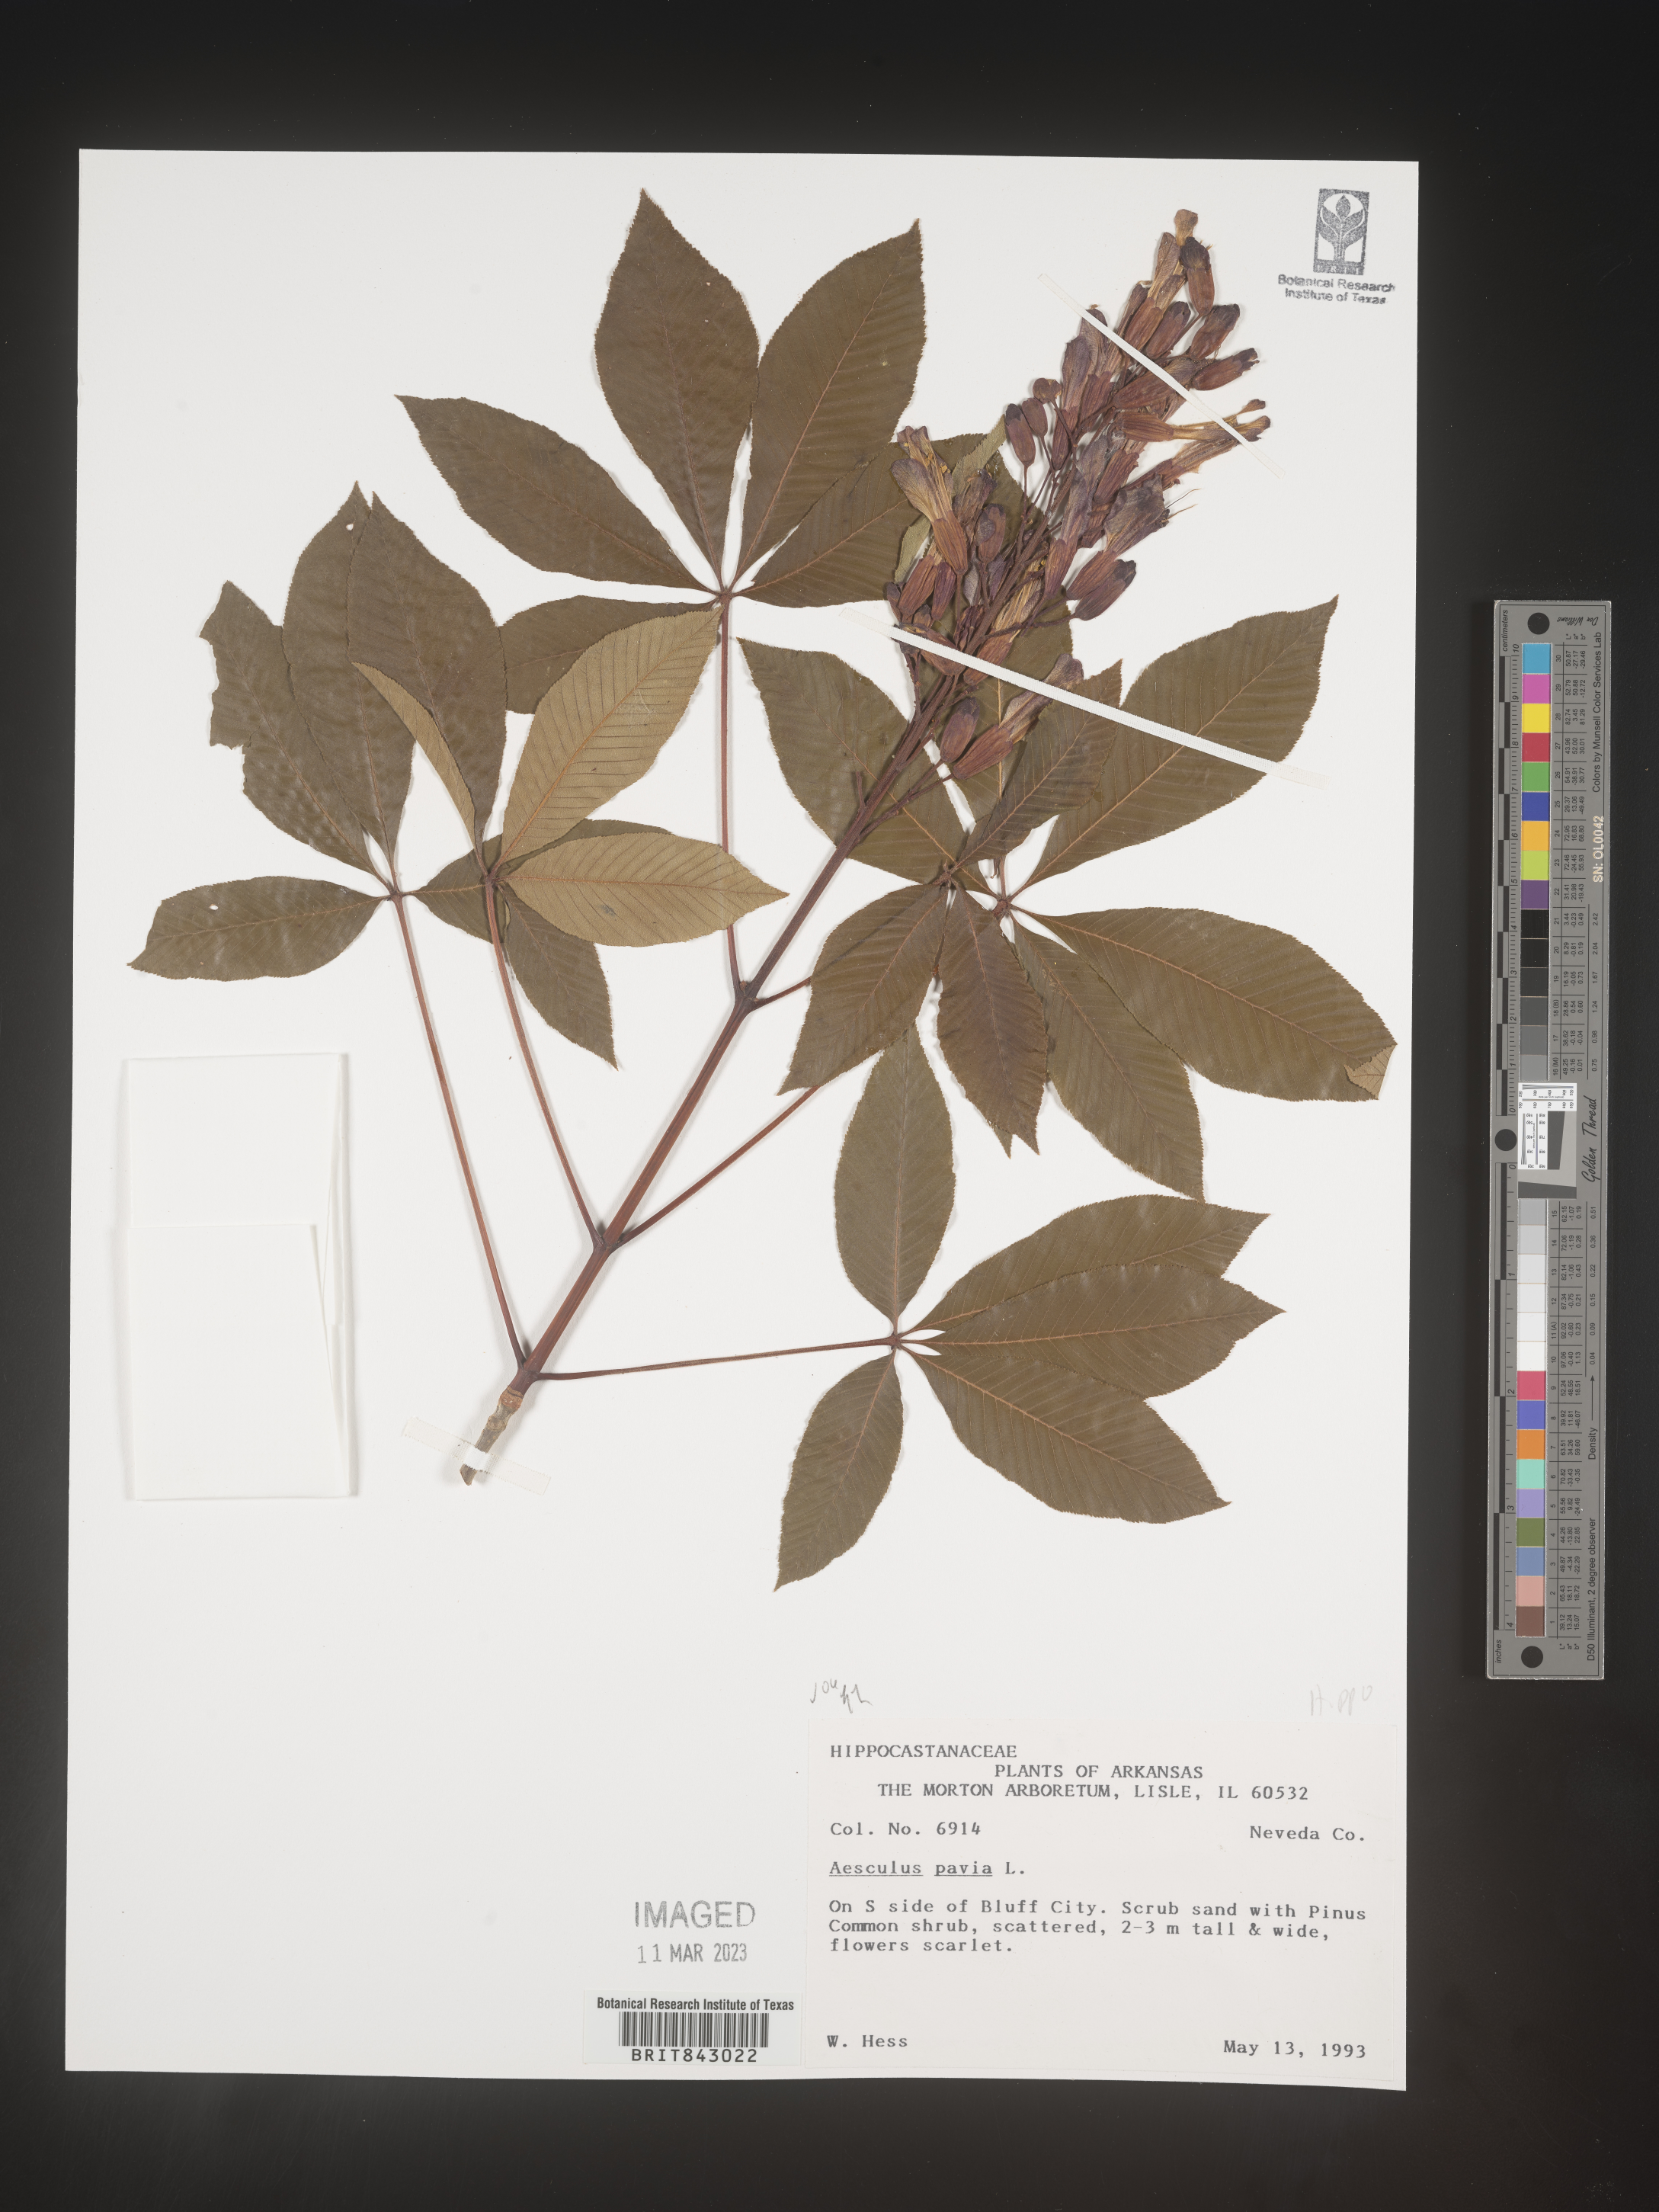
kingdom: Plantae
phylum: Tracheophyta
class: Magnoliopsida
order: Sapindales
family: Sapindaceae
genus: Aesculus
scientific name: Aesculus pavia
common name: Red buckeye
